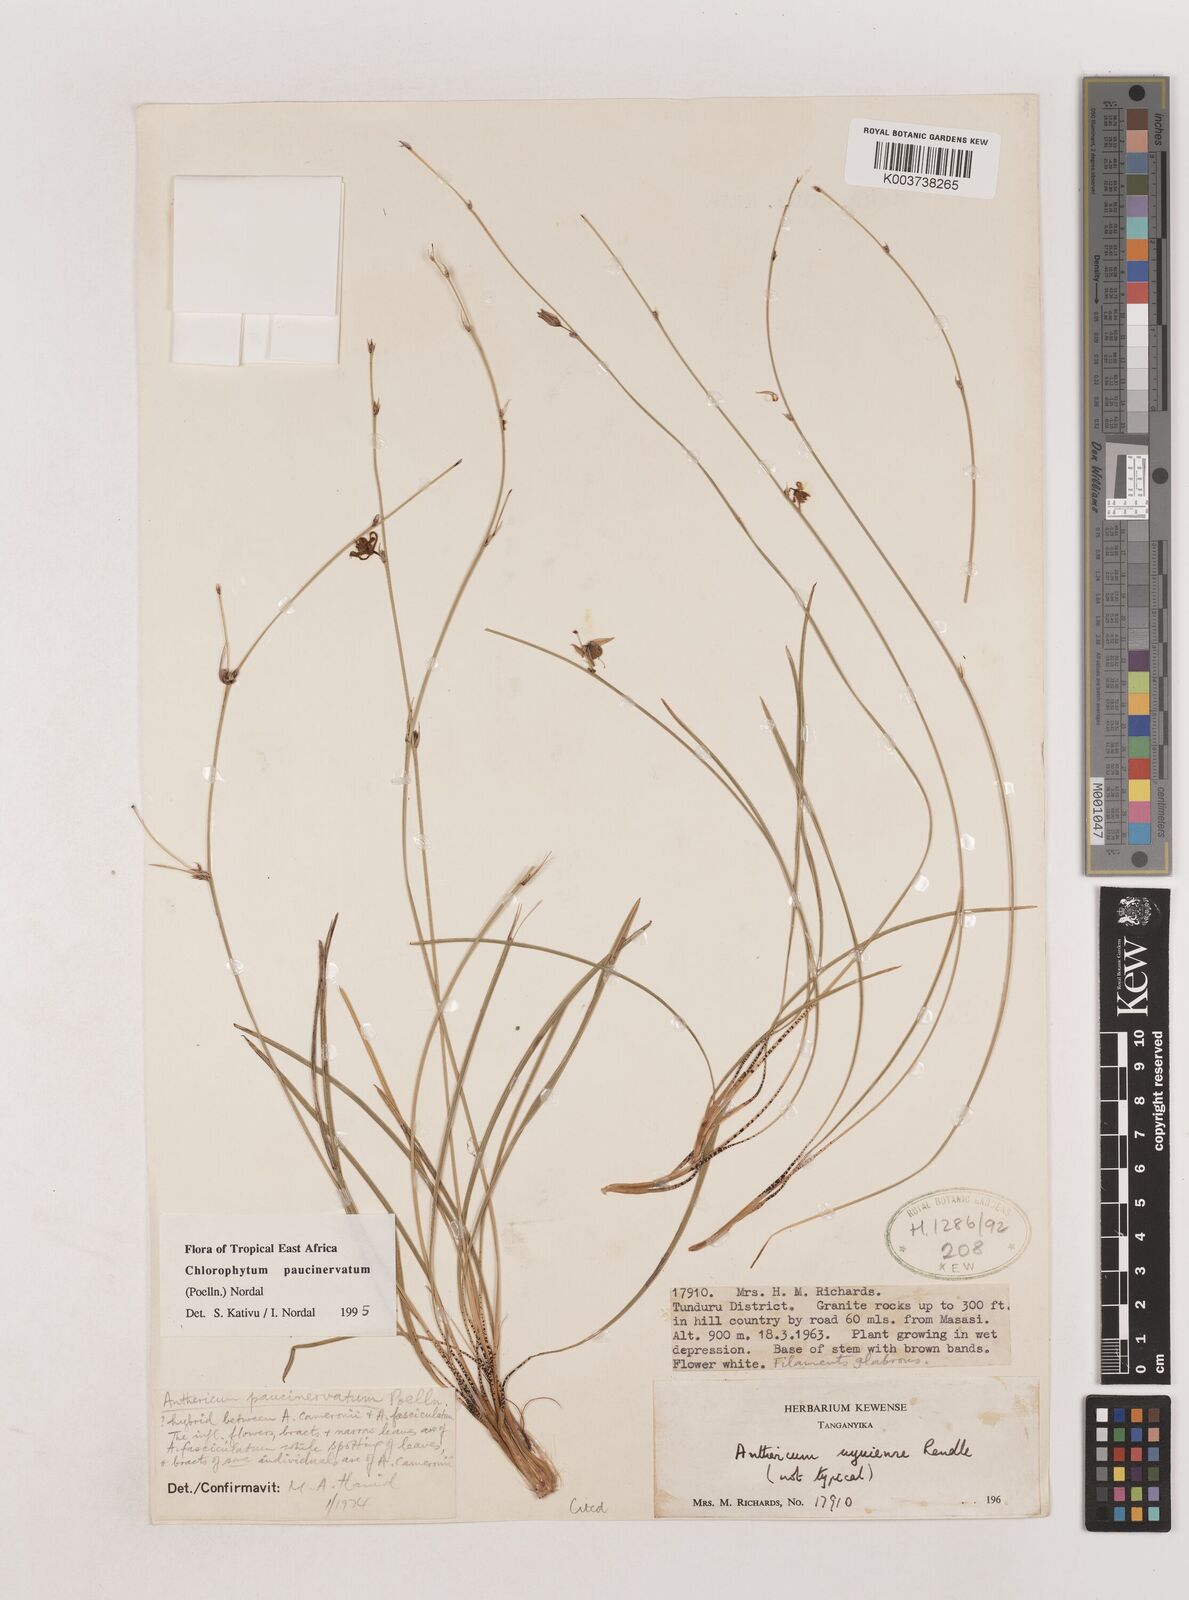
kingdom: Plantae
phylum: Tracheophyta
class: Liliopsida
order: Asparagales
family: Asparagaceae
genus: Chlorophytum
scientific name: Chlorophytum paucinervatum
